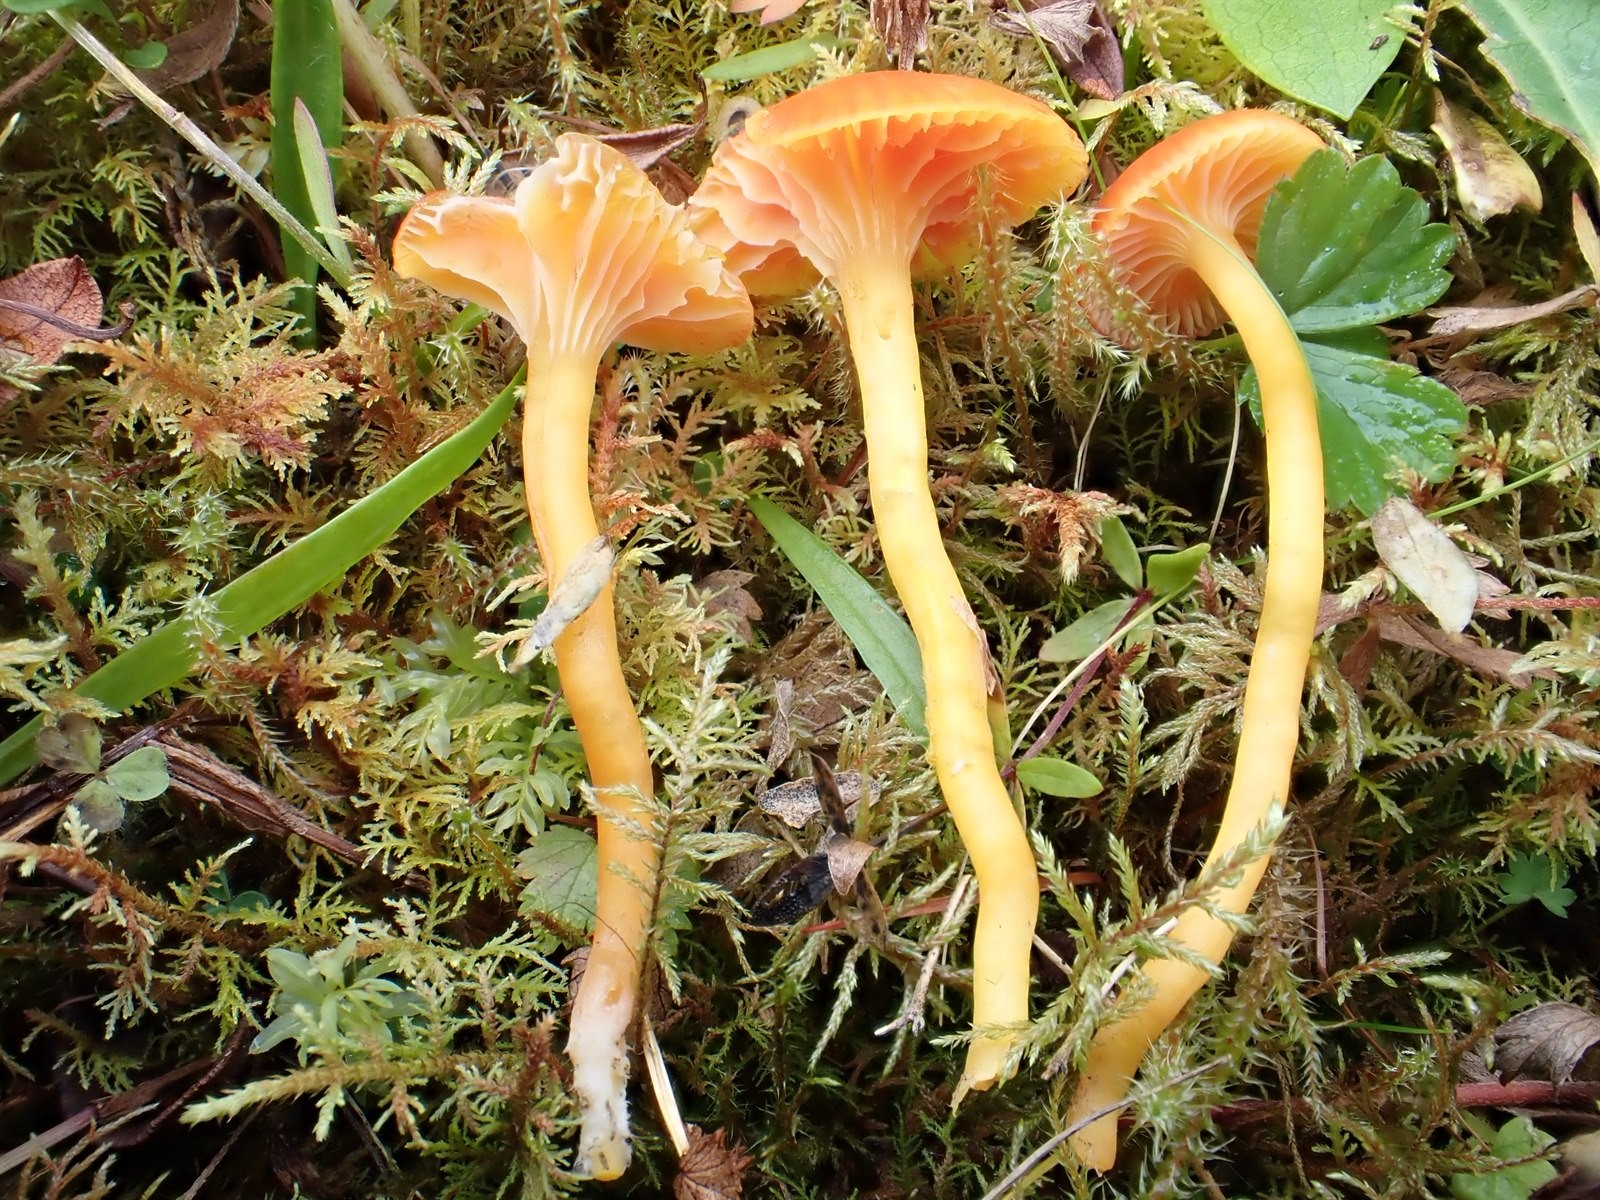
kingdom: Fungi
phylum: Basidiomycota
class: Agaricomycetes
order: Agaricales
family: Hygrophoraceae
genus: Hygrocybe
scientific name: Hygrocybe insipida
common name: Spangle waxcap
